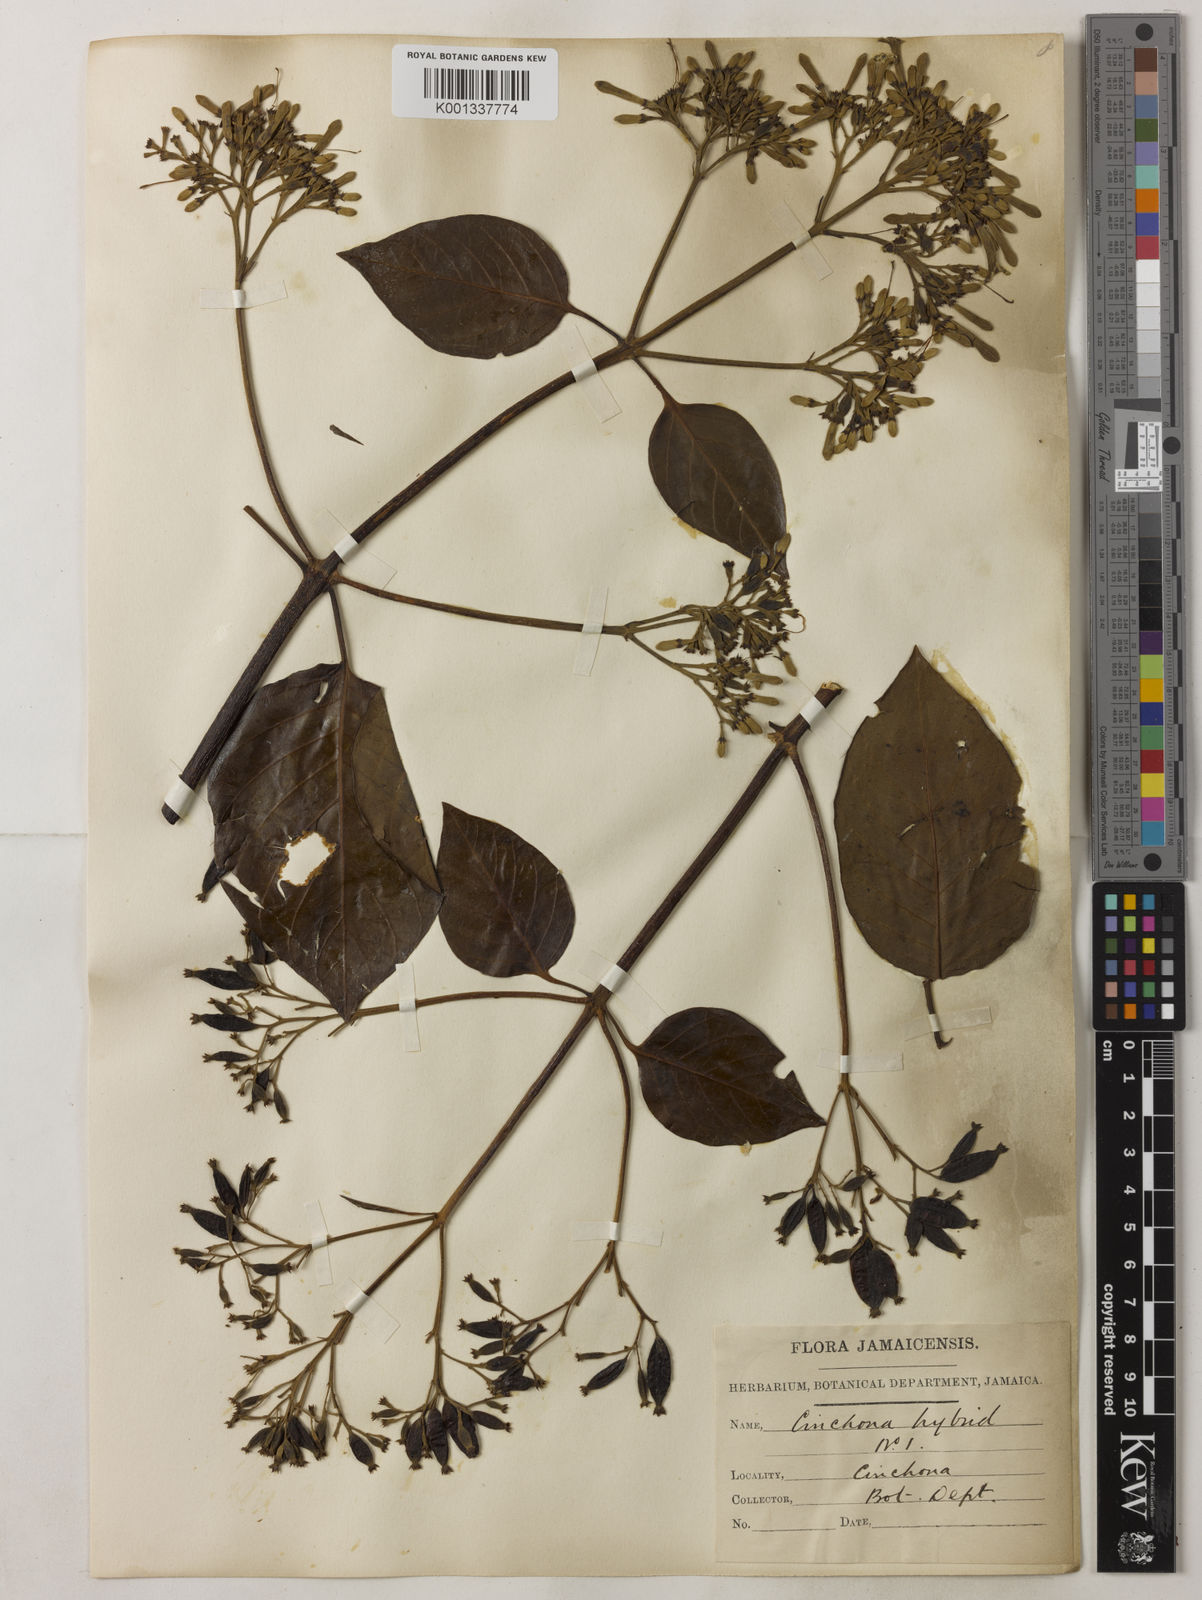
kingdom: Plantae
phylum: Tracheophyta
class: Magnoliopsida
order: Gentianales
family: Rubiaceae
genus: Cinchona
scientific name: Cinchona
